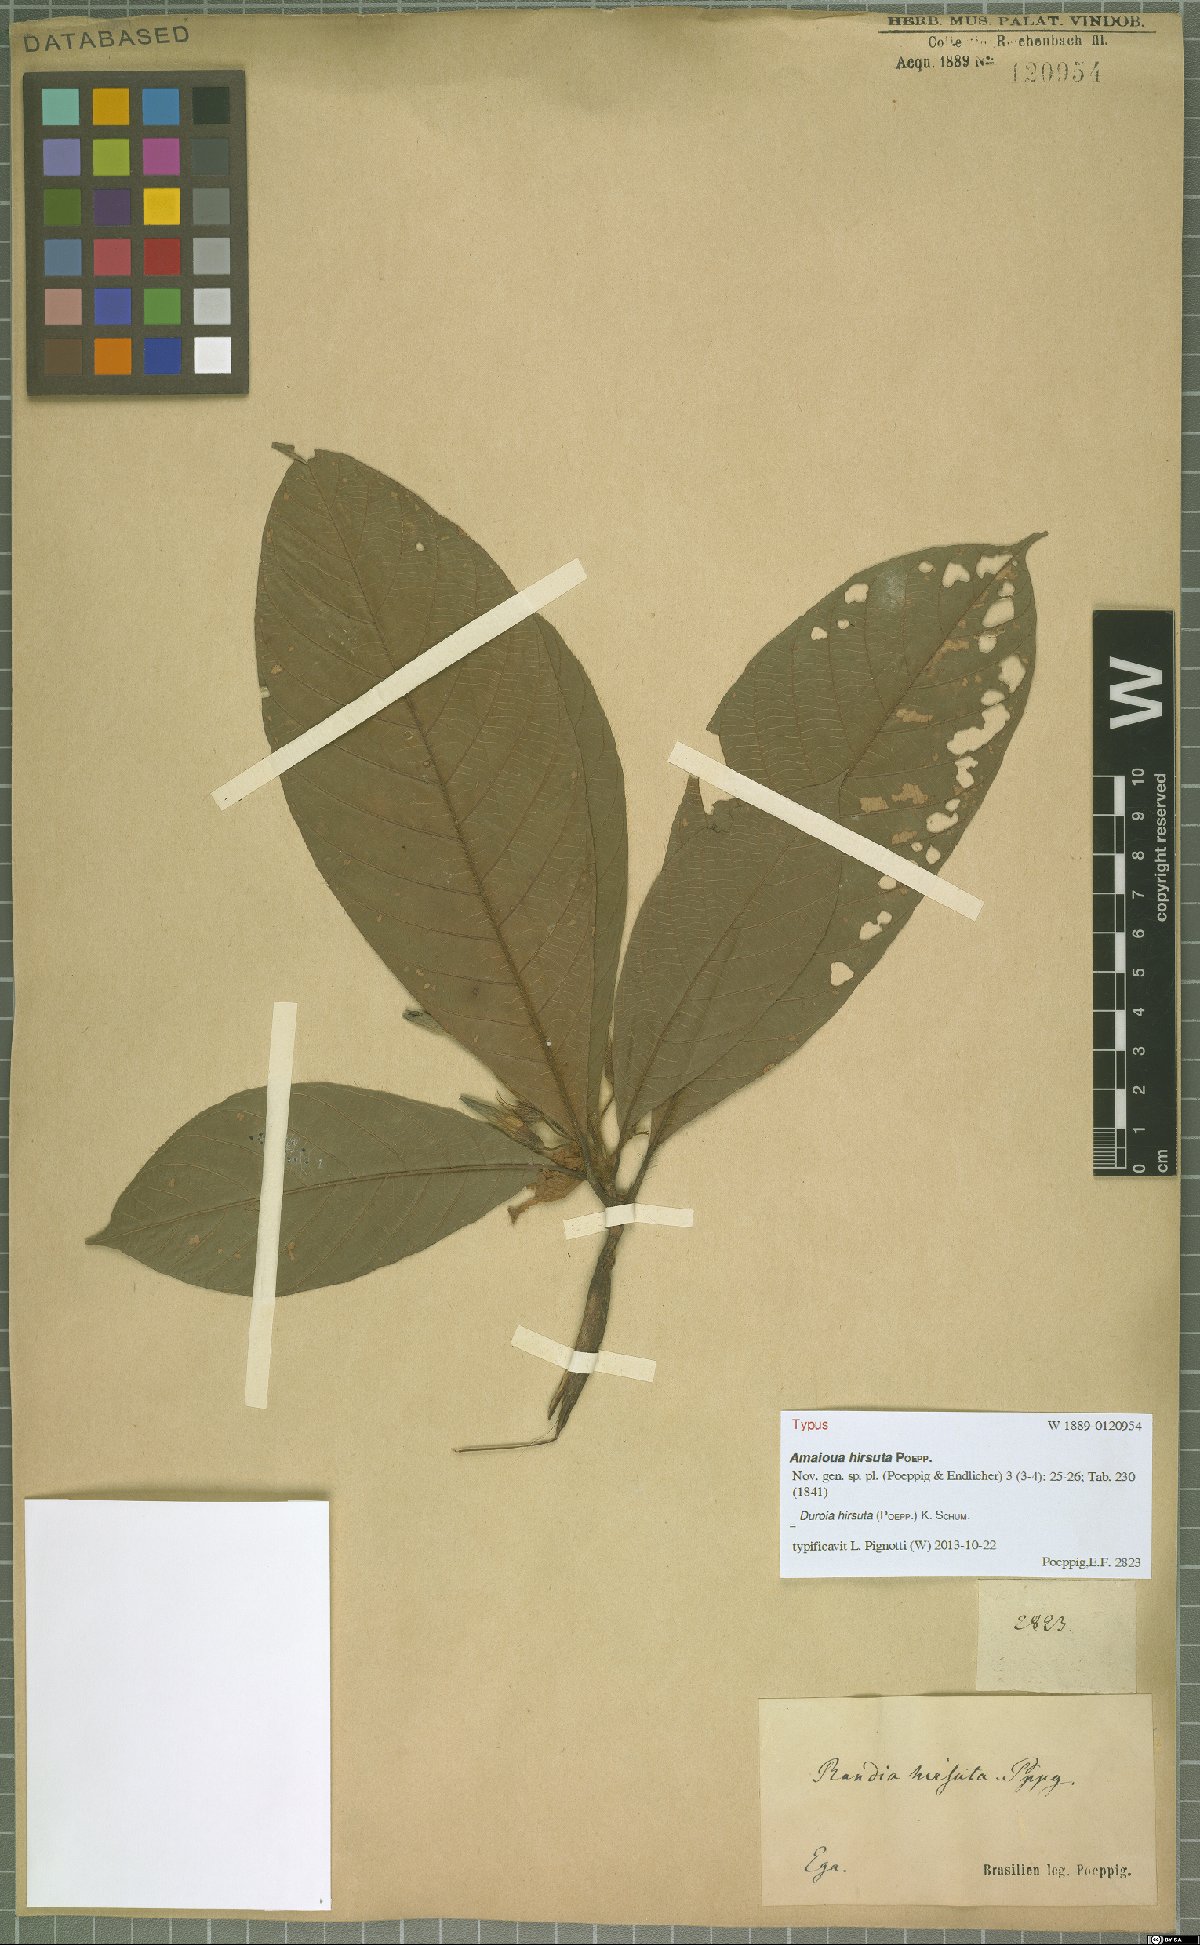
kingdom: Plantae
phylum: Tracheophyta
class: Magnoliopsida
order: Gentianales
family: Rubiaceae
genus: Duroia
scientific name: Duroia hirsuta
